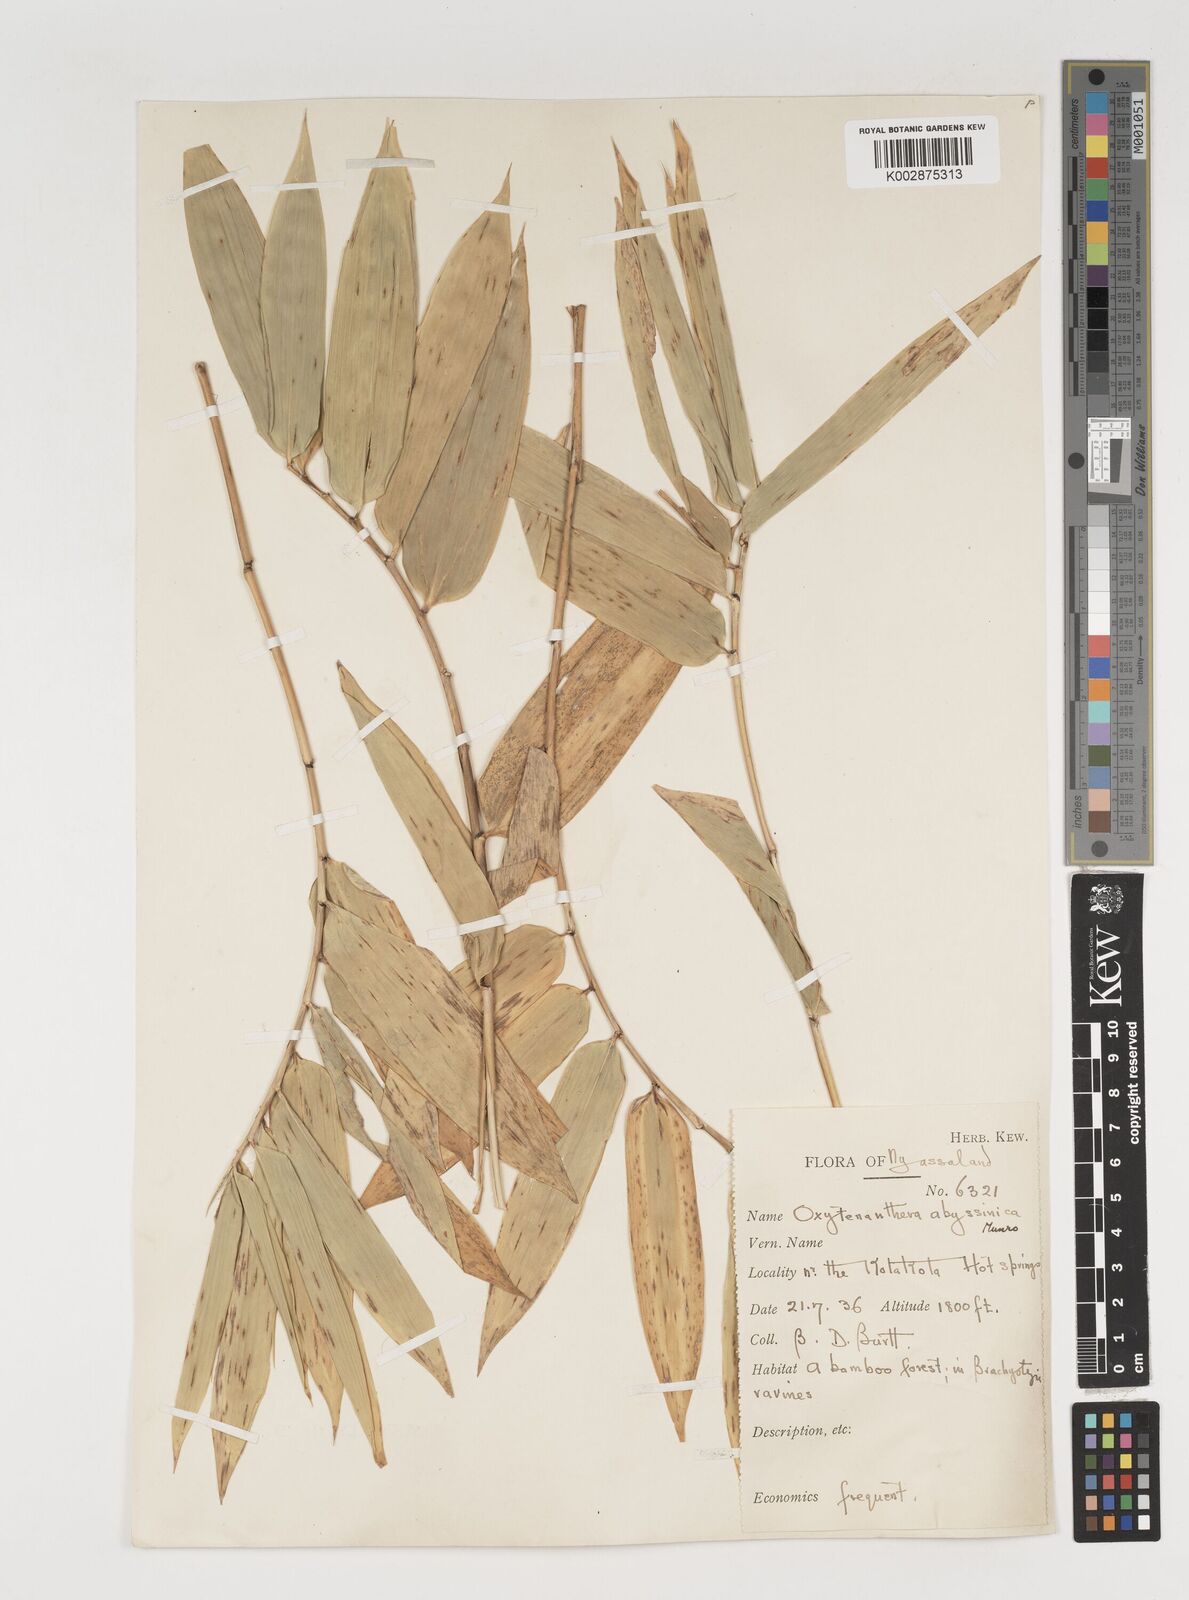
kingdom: Plantae
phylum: Tracheophyta
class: Liliopsida
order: Poales
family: Poaceae
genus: Oxytenanthera
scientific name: Oxytenanthera abyssinica
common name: Wine bamboo
